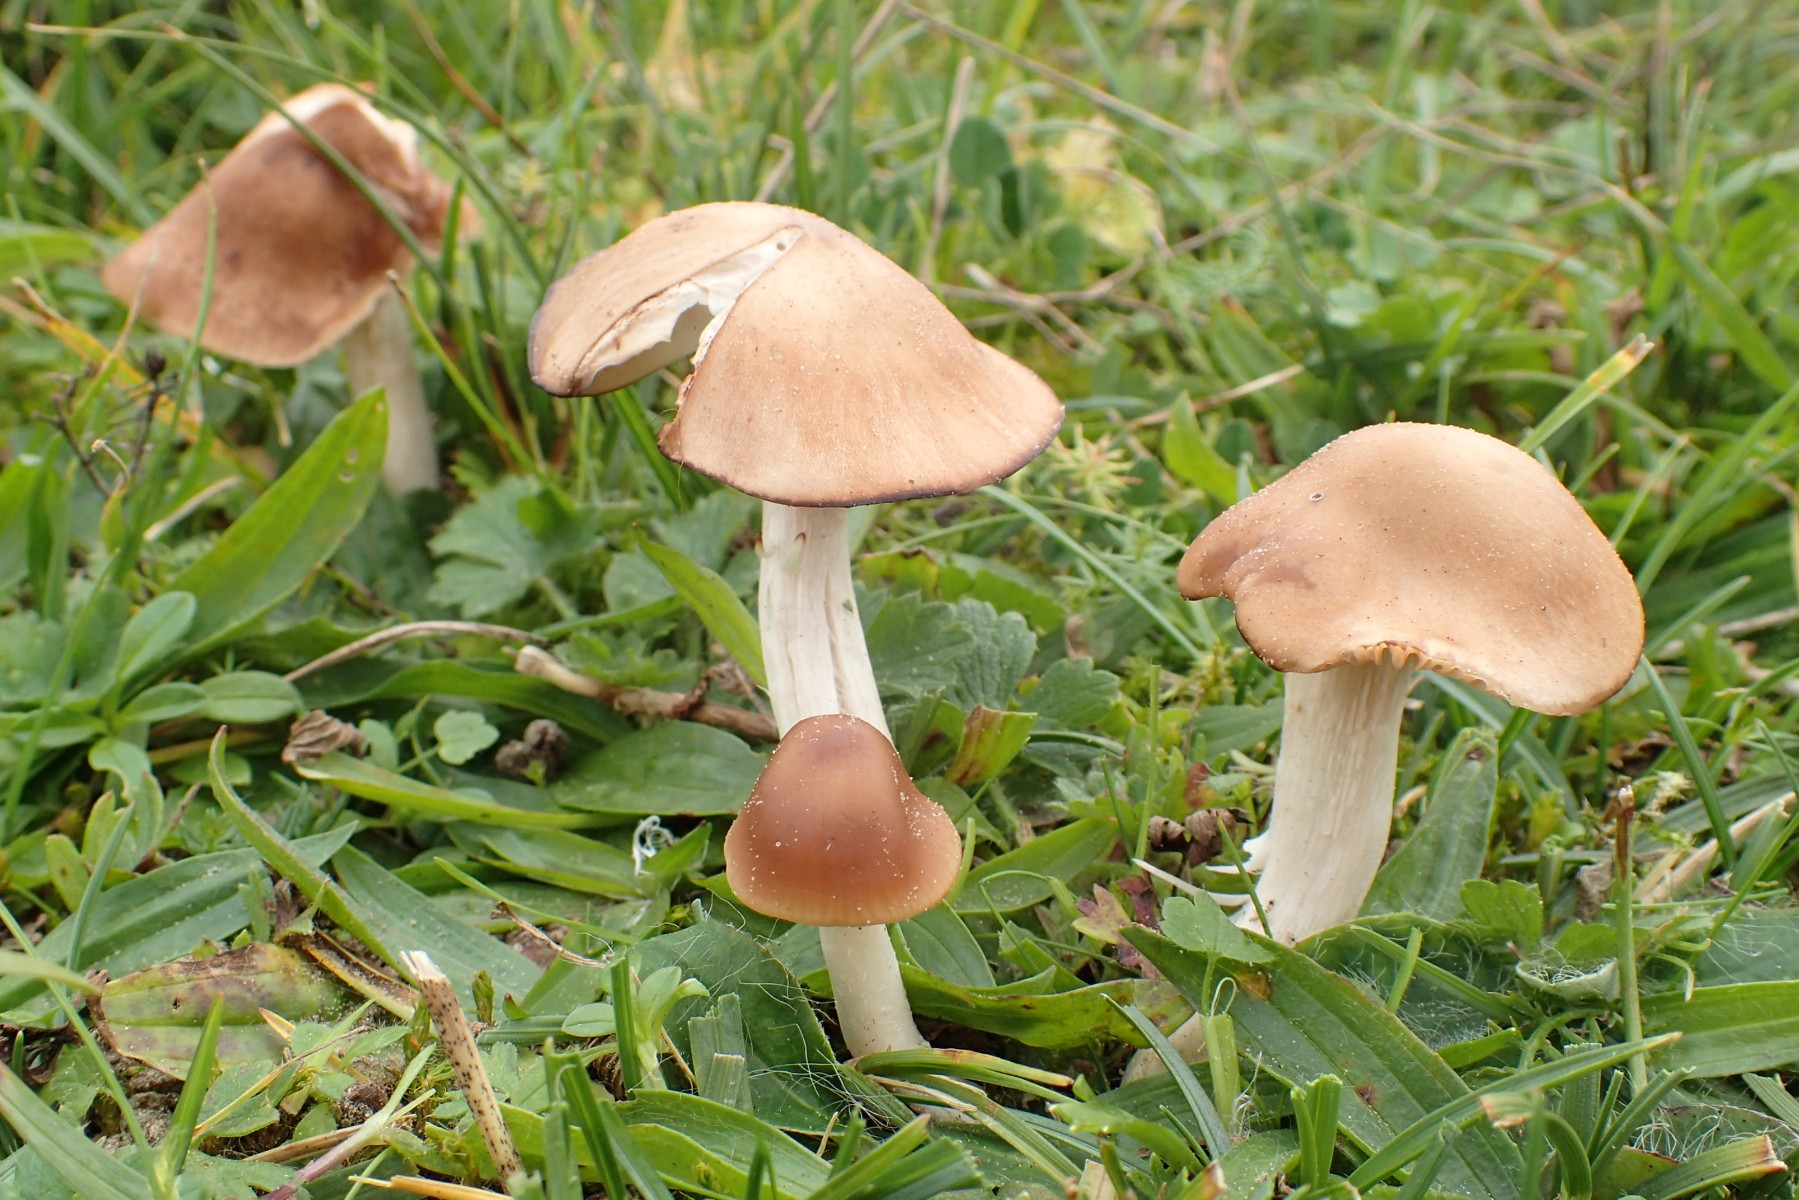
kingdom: Fungi
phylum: Basidiomycota
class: Agaricomycetes
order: Agaricales
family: Hygrophoraceae
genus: Cuphophyllus
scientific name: Cuphophyllus colemannianus
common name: rødbrun vokshat
